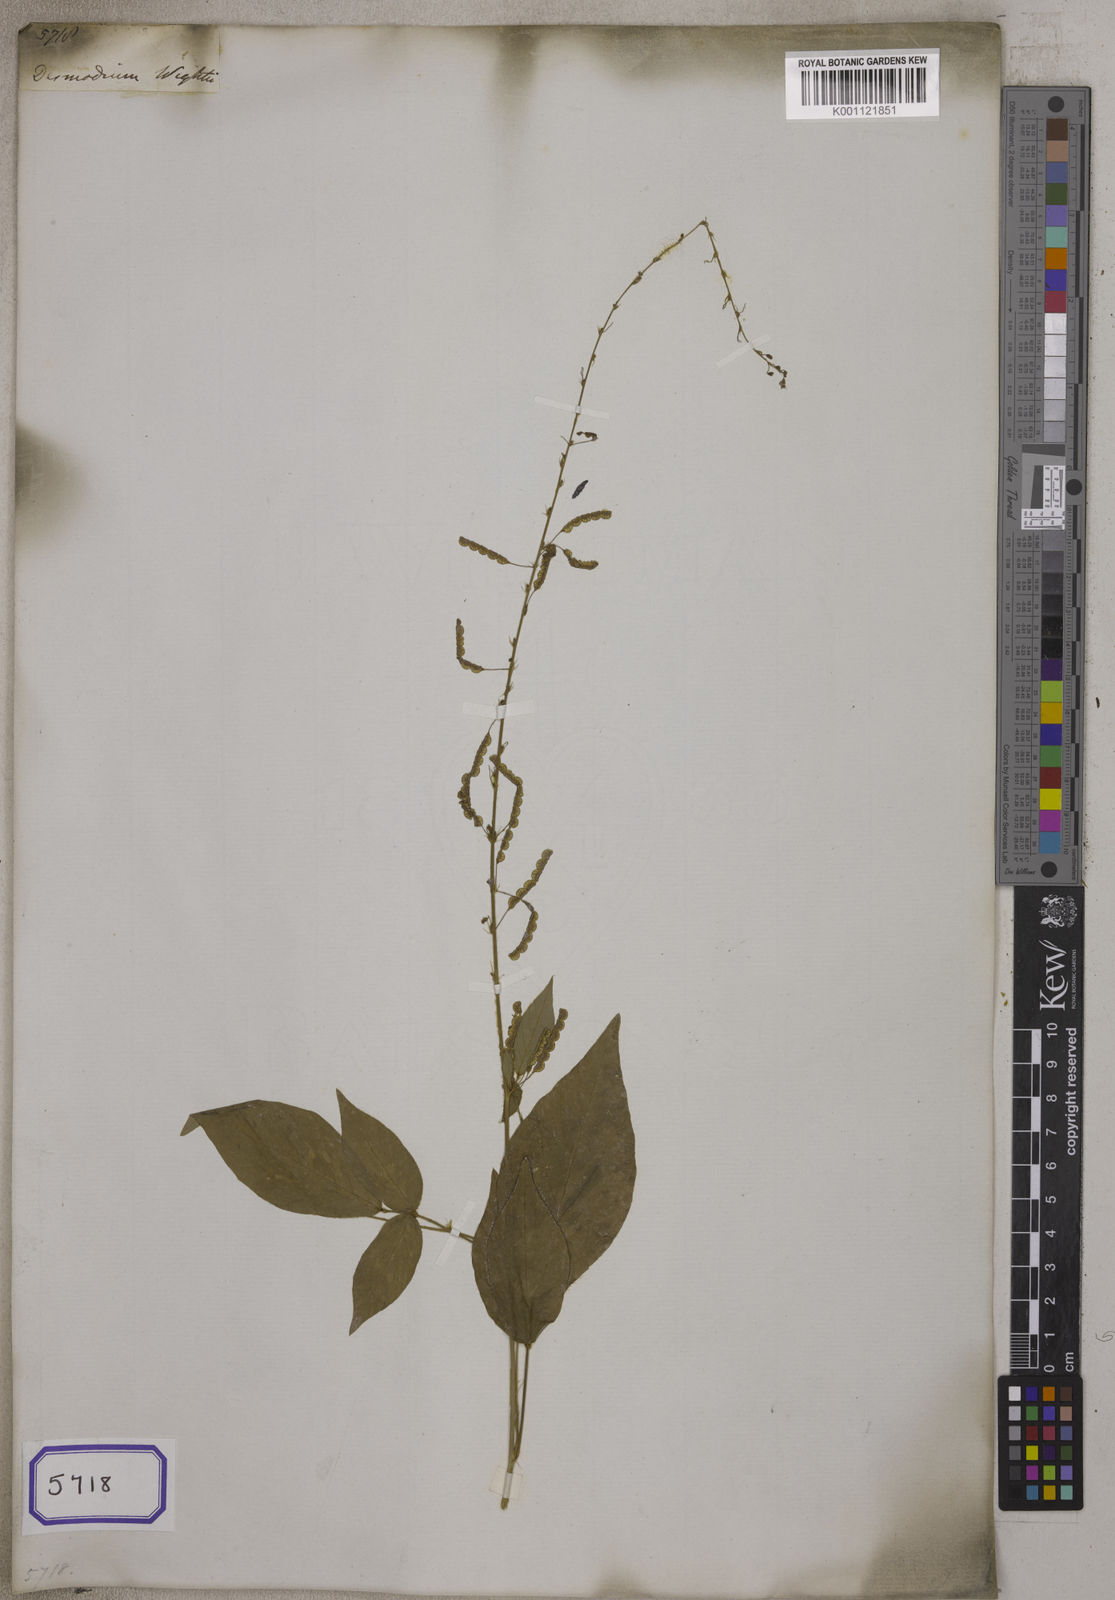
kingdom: Plantae
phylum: Tracheophyta
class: Magnoliopsida
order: Fabales
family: Fabaceae
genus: Desmodium
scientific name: Desmodium
